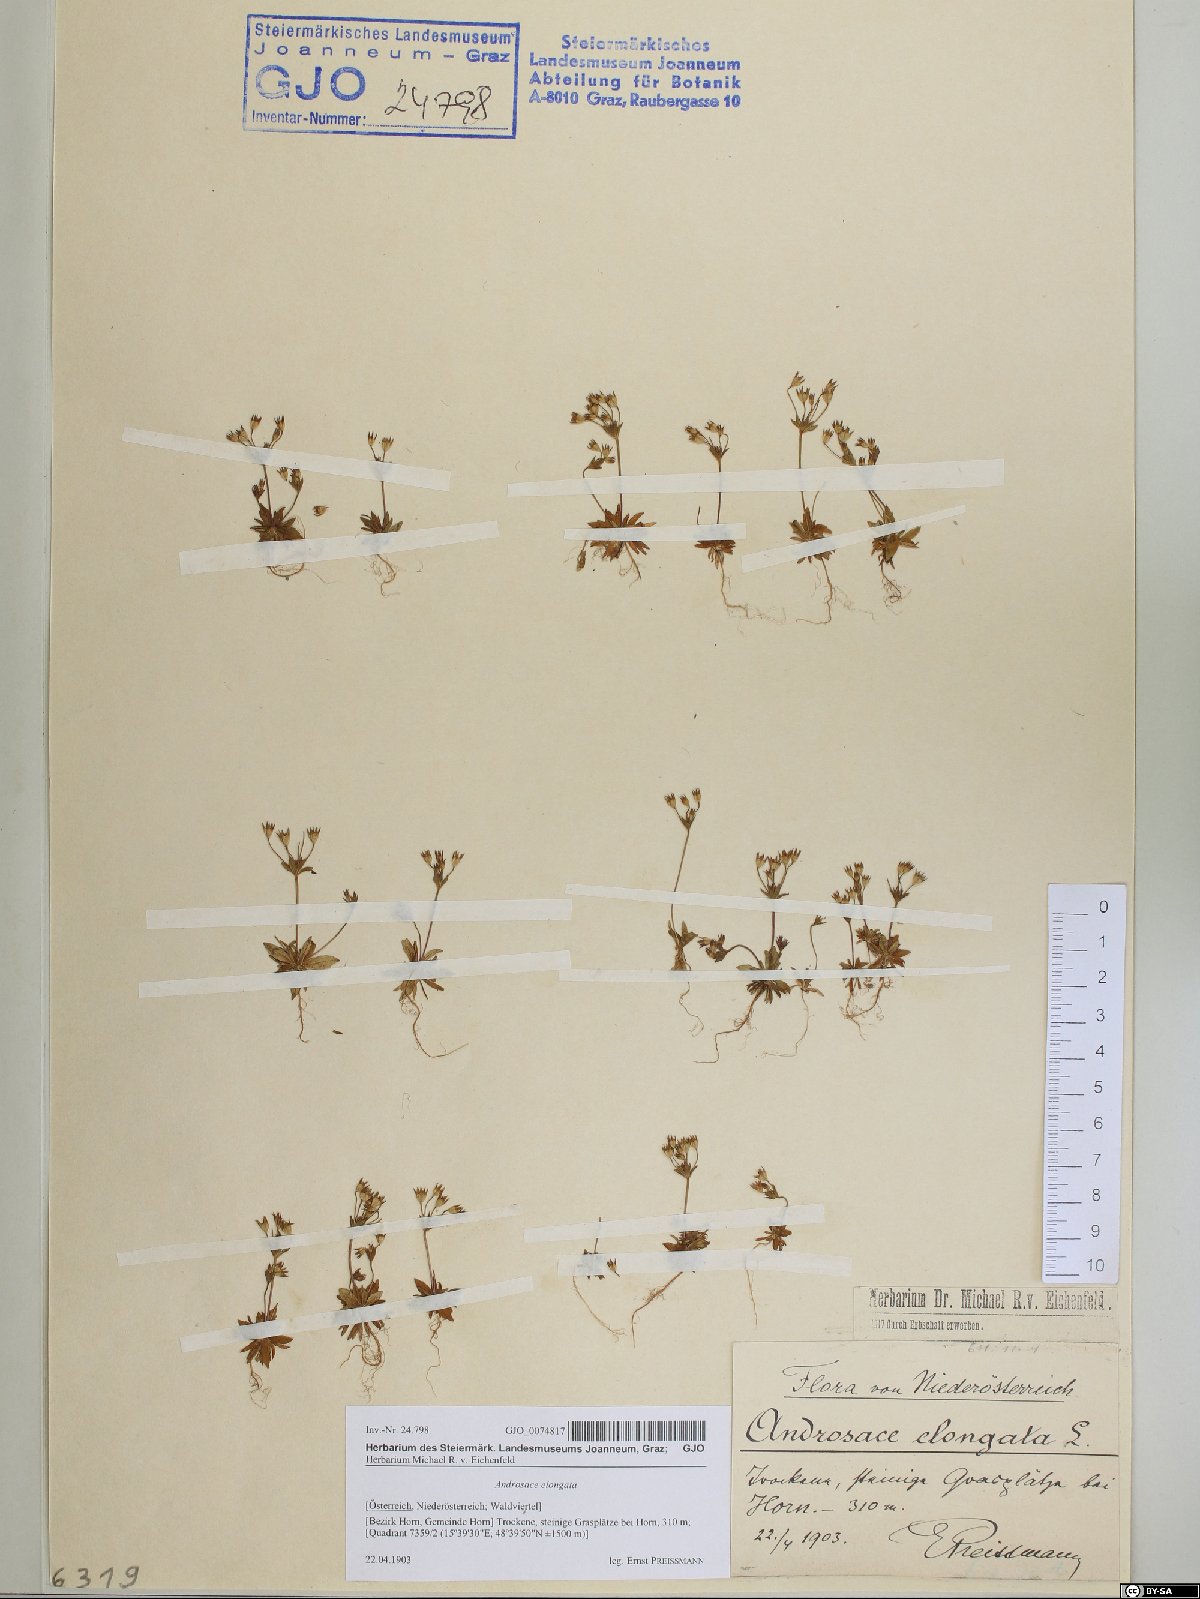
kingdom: Plantae
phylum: Tracheophyta
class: Magnoliopsida
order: Ericales
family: Primulaceae
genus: Androsace
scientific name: Androsace elongata
